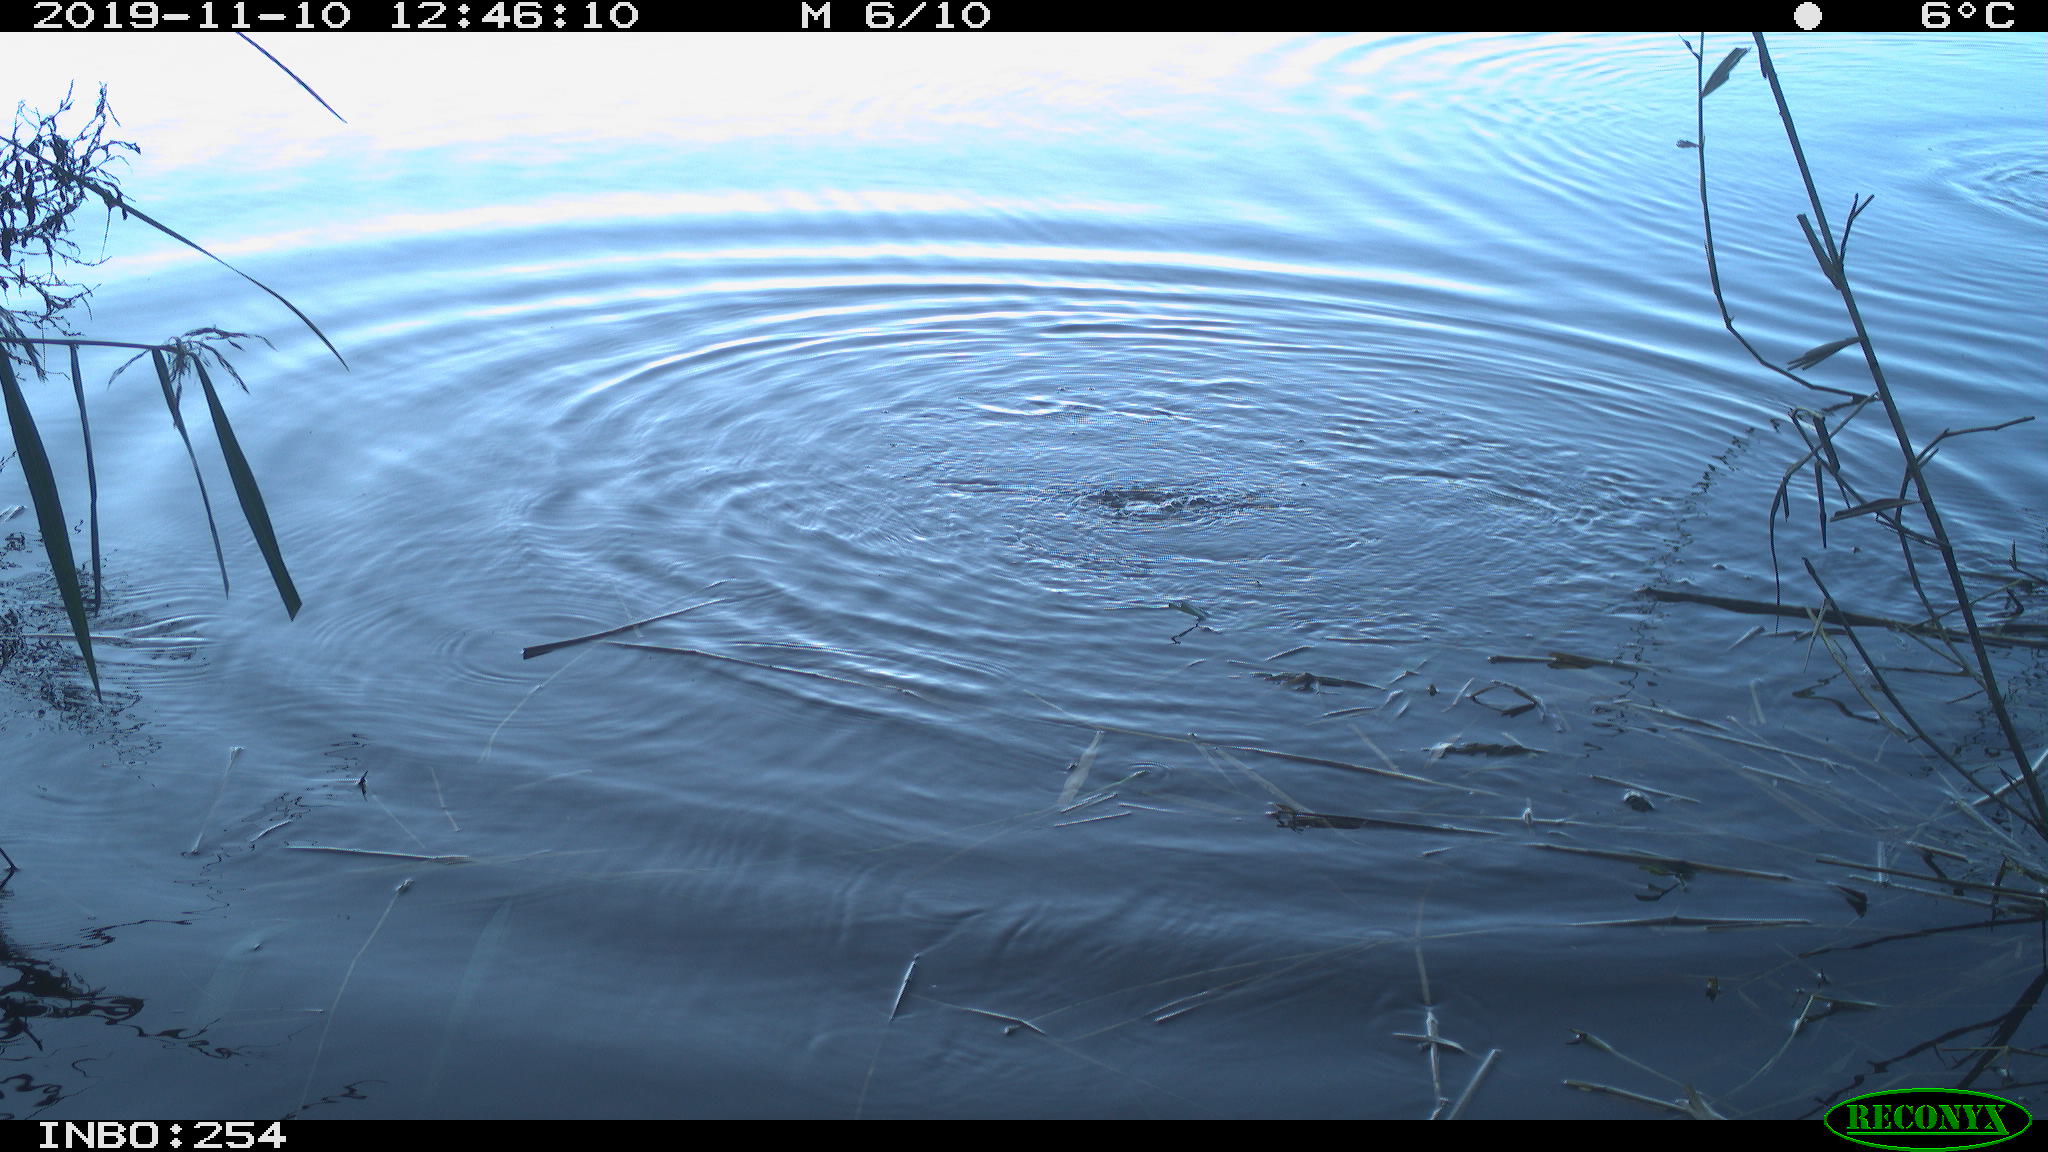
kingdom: Animalia
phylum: Chordata
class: Aves
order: Gruiformes
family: Rallidae
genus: Fulica
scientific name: Fulica atra
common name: Eurasian coot
